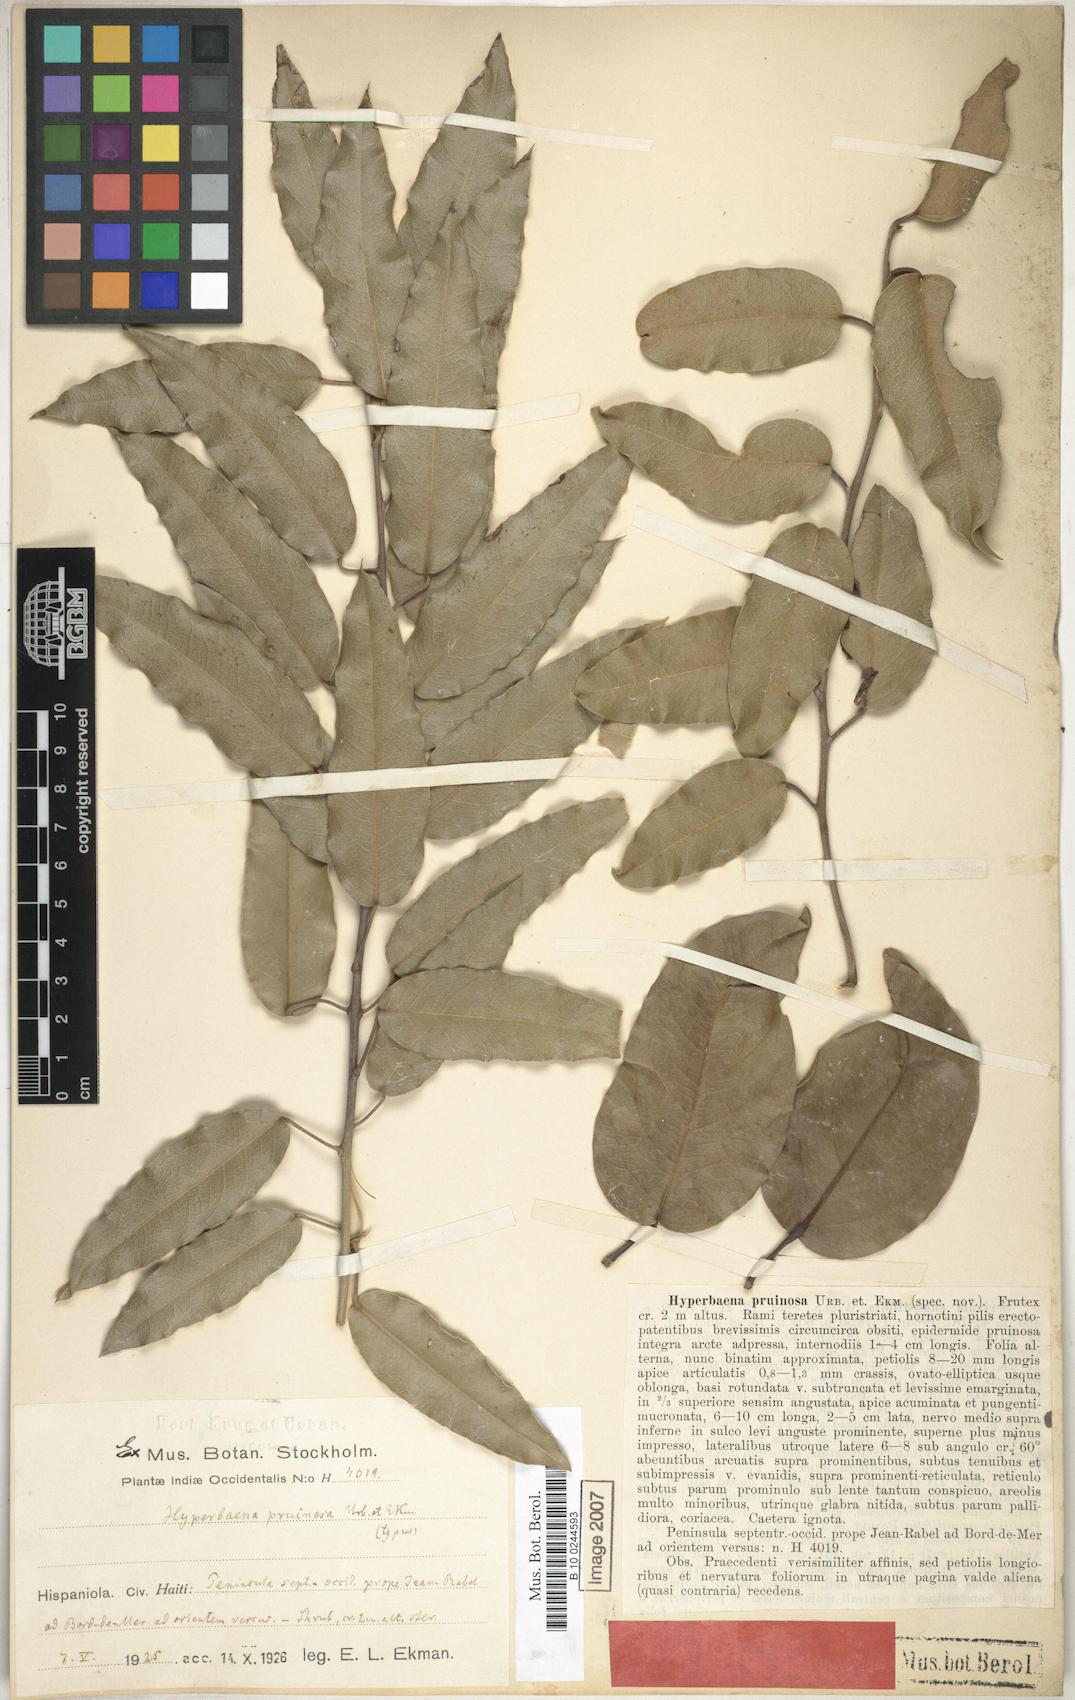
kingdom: Plantae
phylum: Tracheophyta
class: Magnoliopsida
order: Ranunculales
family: Menispermaceae
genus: Hyperbaena
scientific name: Hyperbaena brevipes
